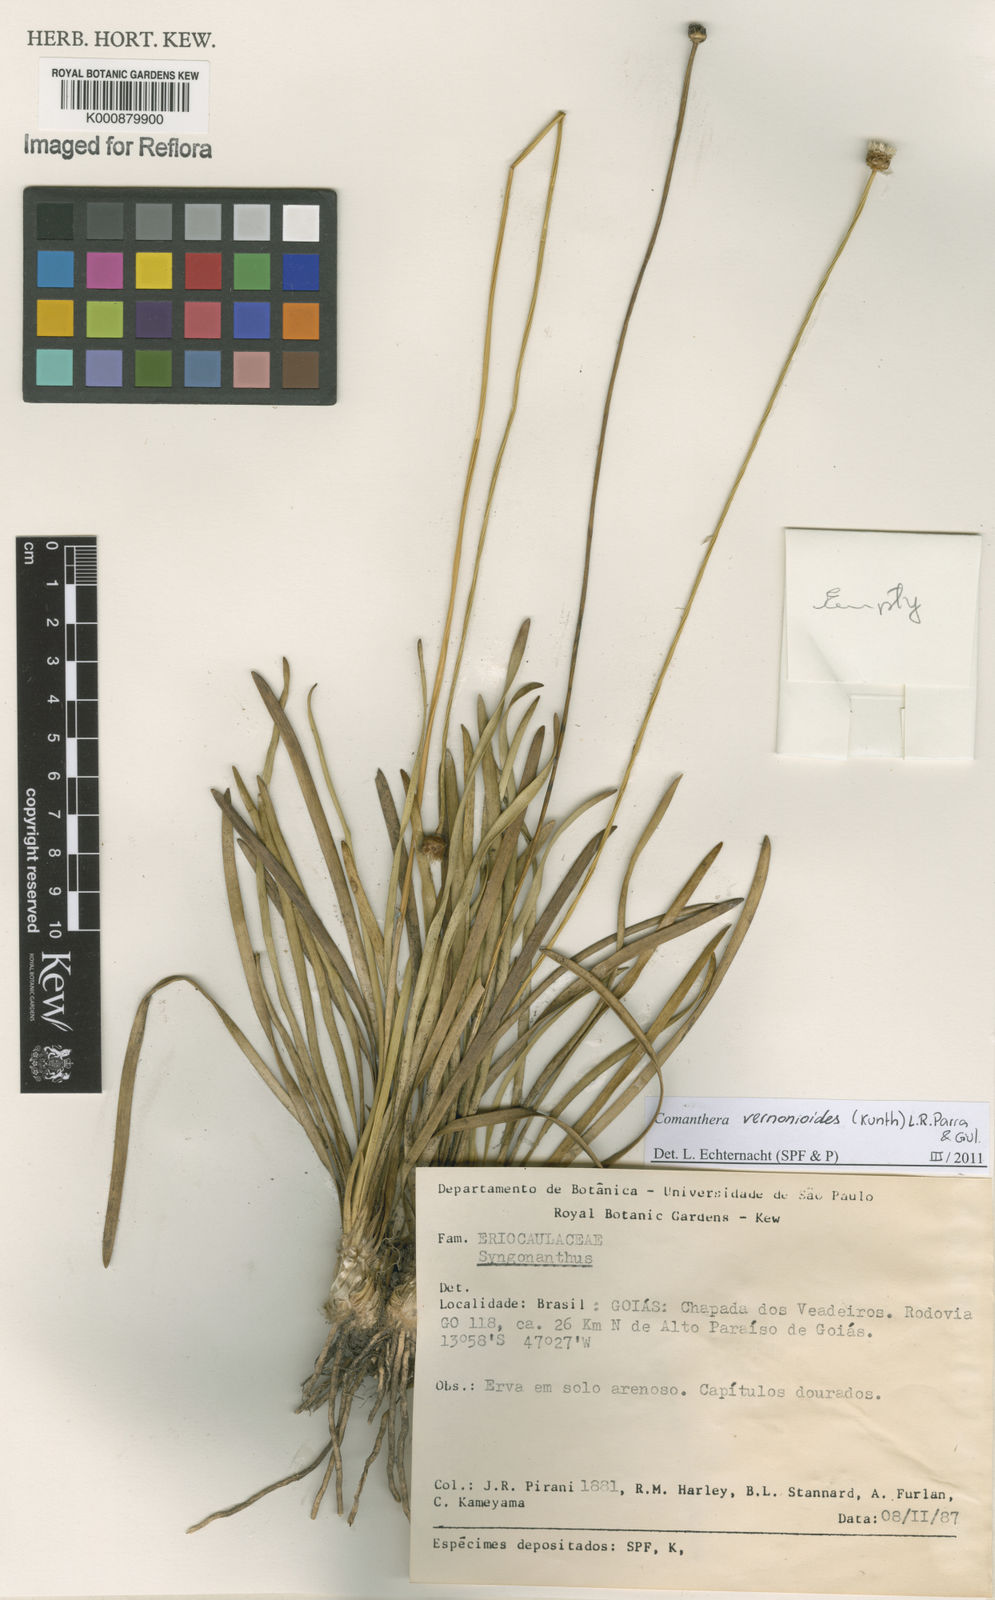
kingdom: Plantae
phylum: Tracheophyta
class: Liliopsida
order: Poales
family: Eriocaulaceae
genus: Comanthera
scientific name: Comanthera centauroides
